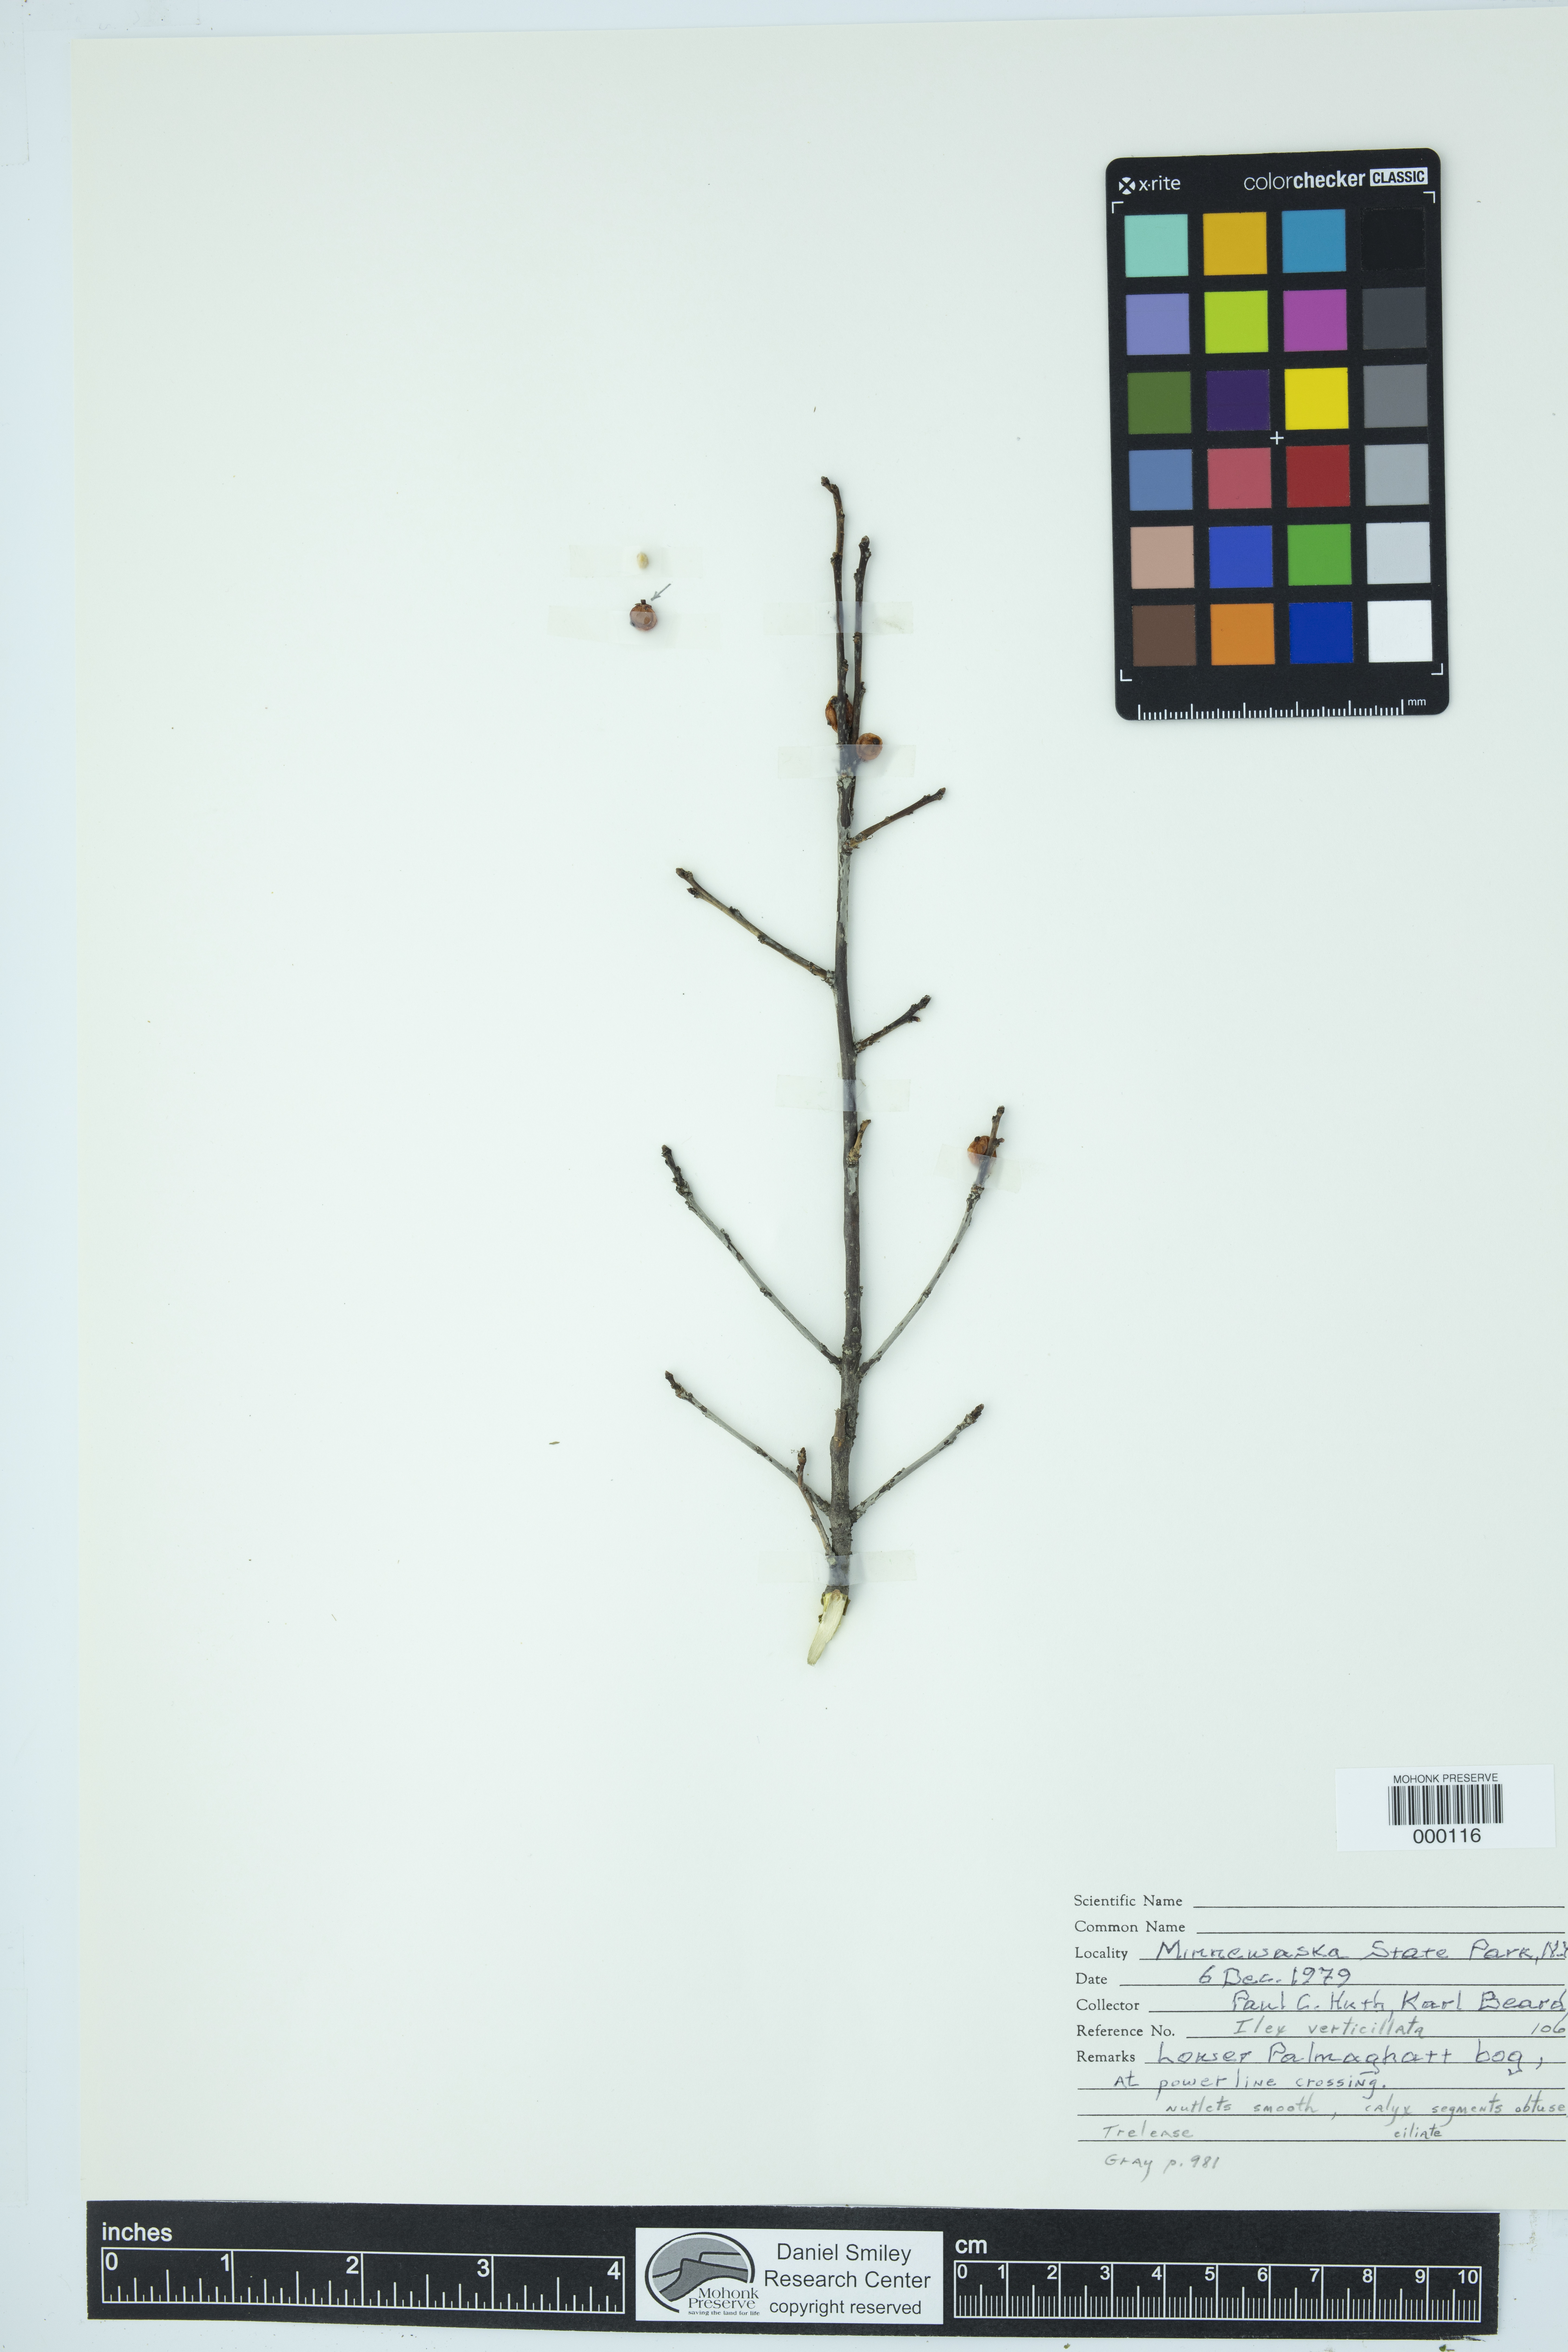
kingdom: Plantae
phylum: Tracheophyta
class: Magnoliopsida
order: Aquifoliales
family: Aquifoliaceae
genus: Ilex
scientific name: Ilex verticillata
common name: Virginia winterberry
